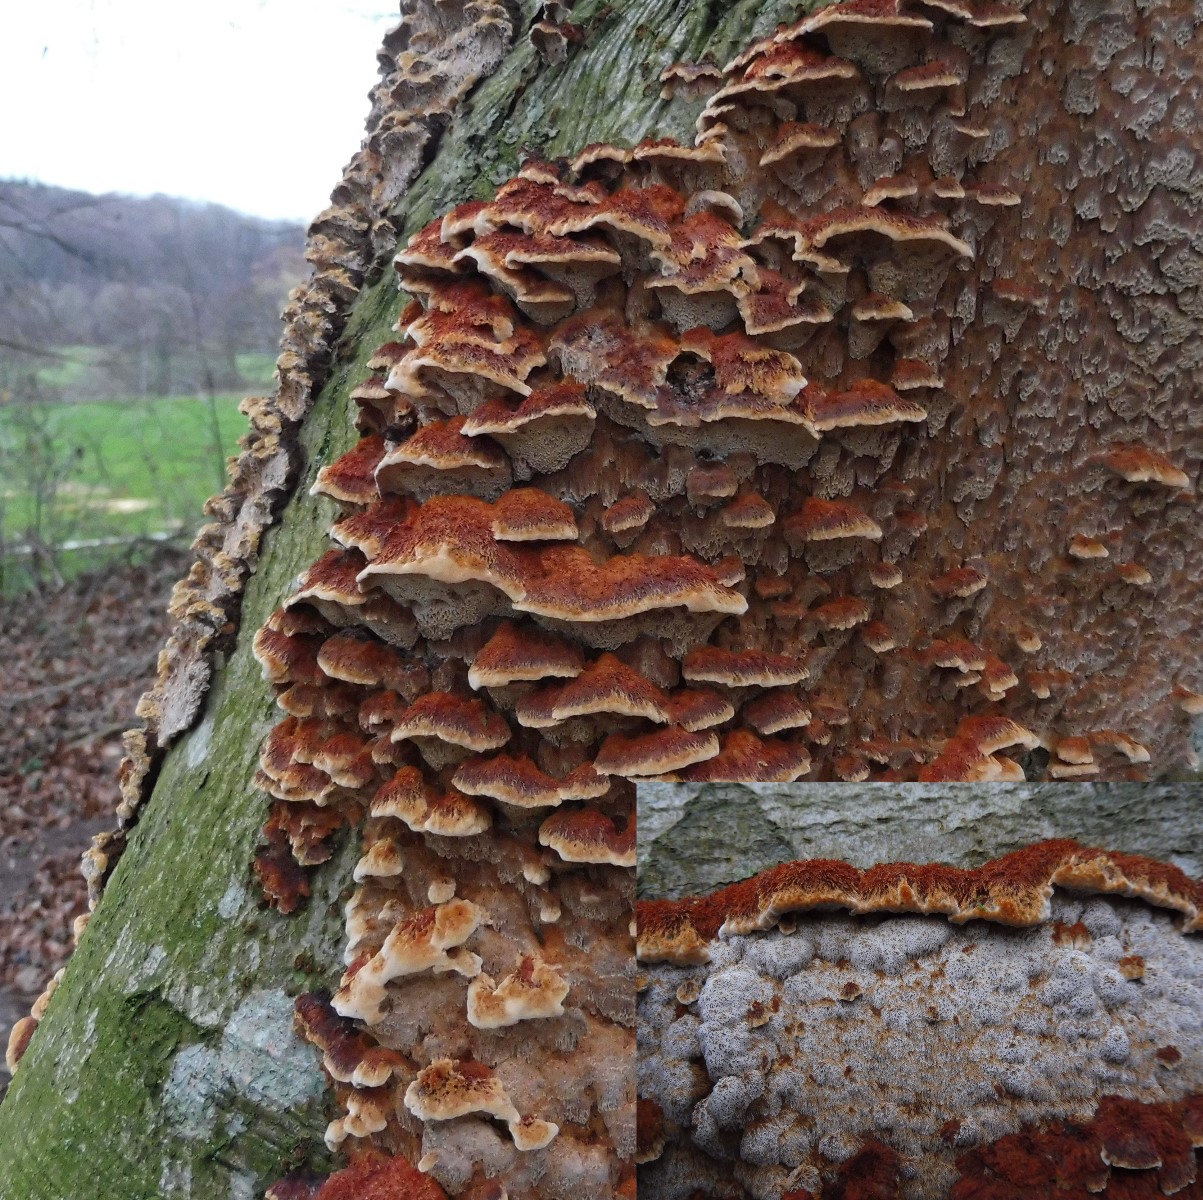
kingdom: Fungi
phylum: Basidiomycota
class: Agaricomycetes
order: Hymenochaetales
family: Hymenochaetaceae
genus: Mensularia
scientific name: Mensularia nodulosa
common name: bøge-spejlporesvamp
